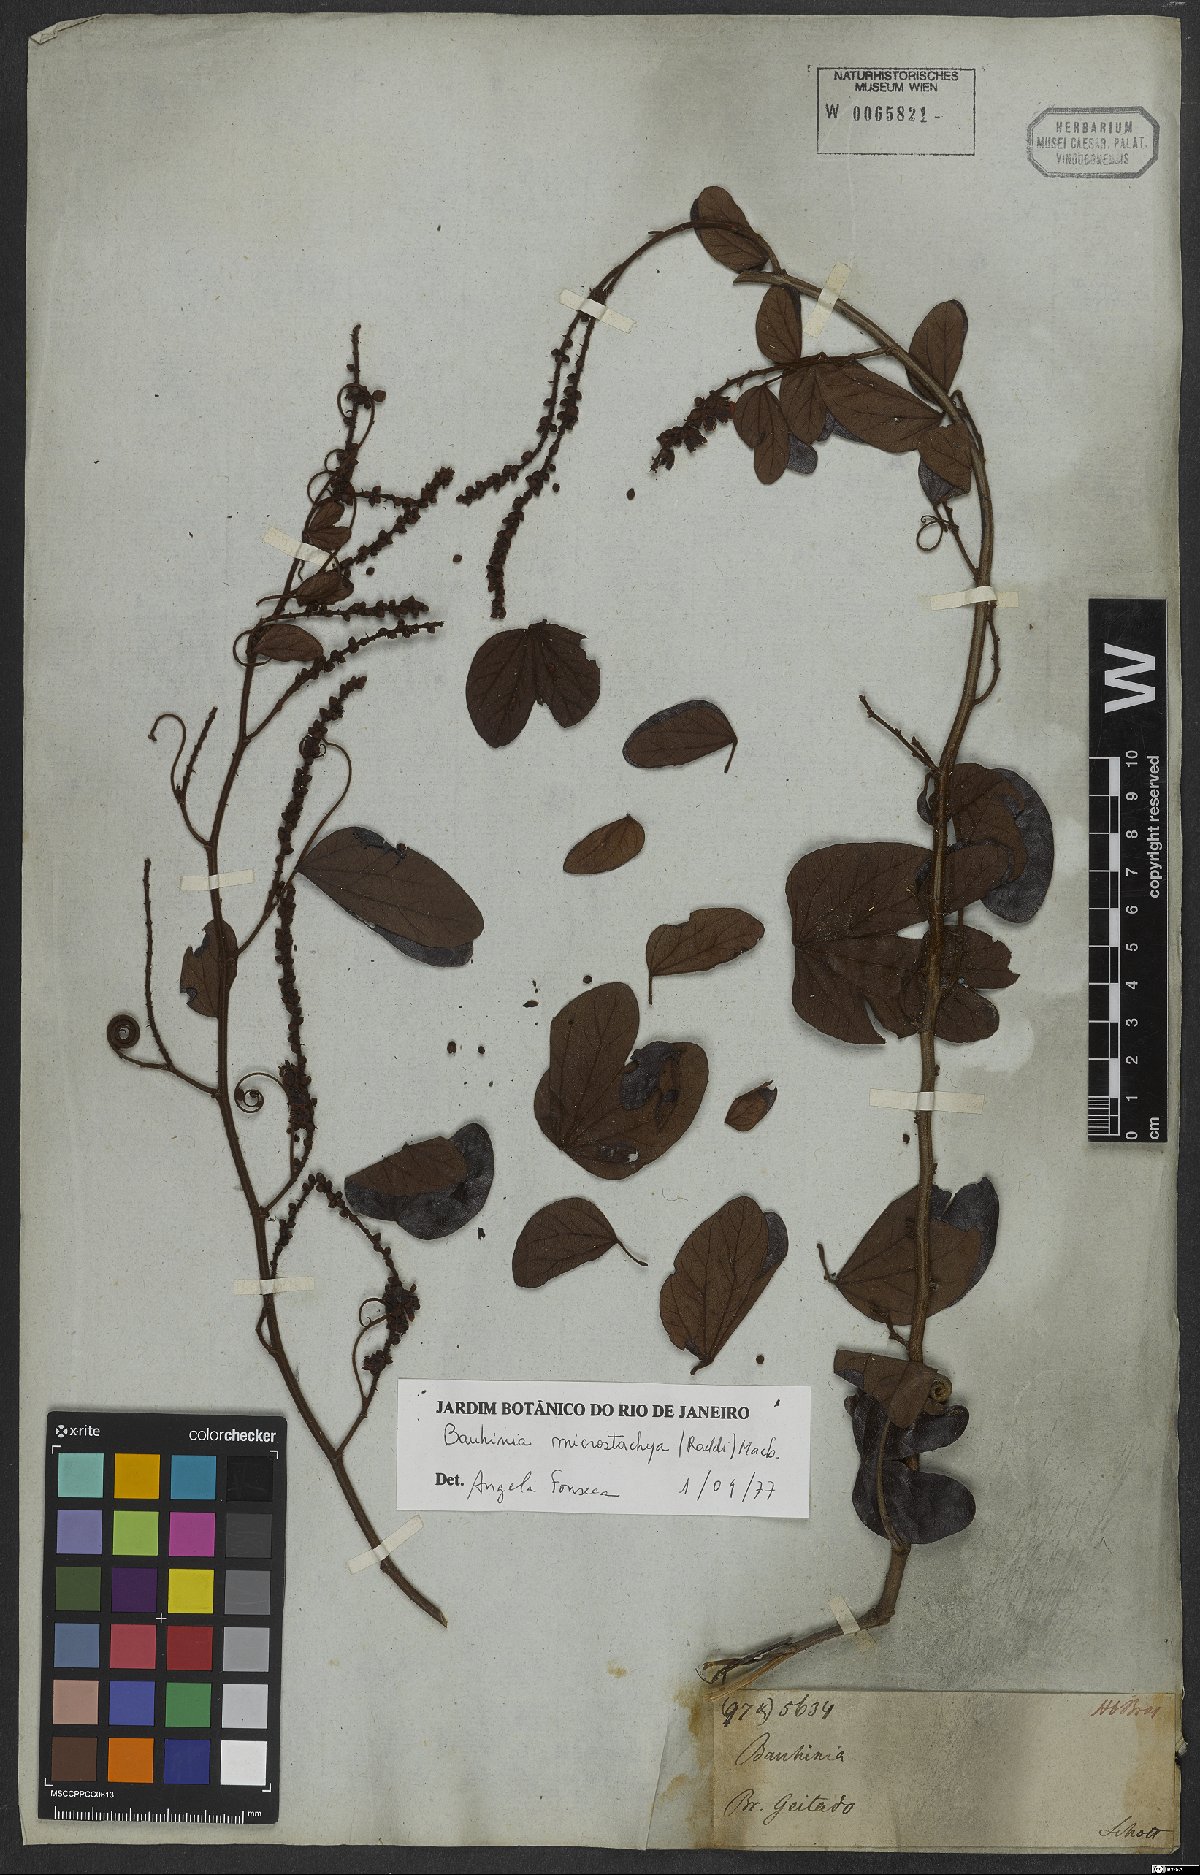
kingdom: Plantae
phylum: Tracheophyta
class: Magnoliopsida
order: Fabales
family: Fabaceae
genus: Schnella
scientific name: Schnella microstachya
